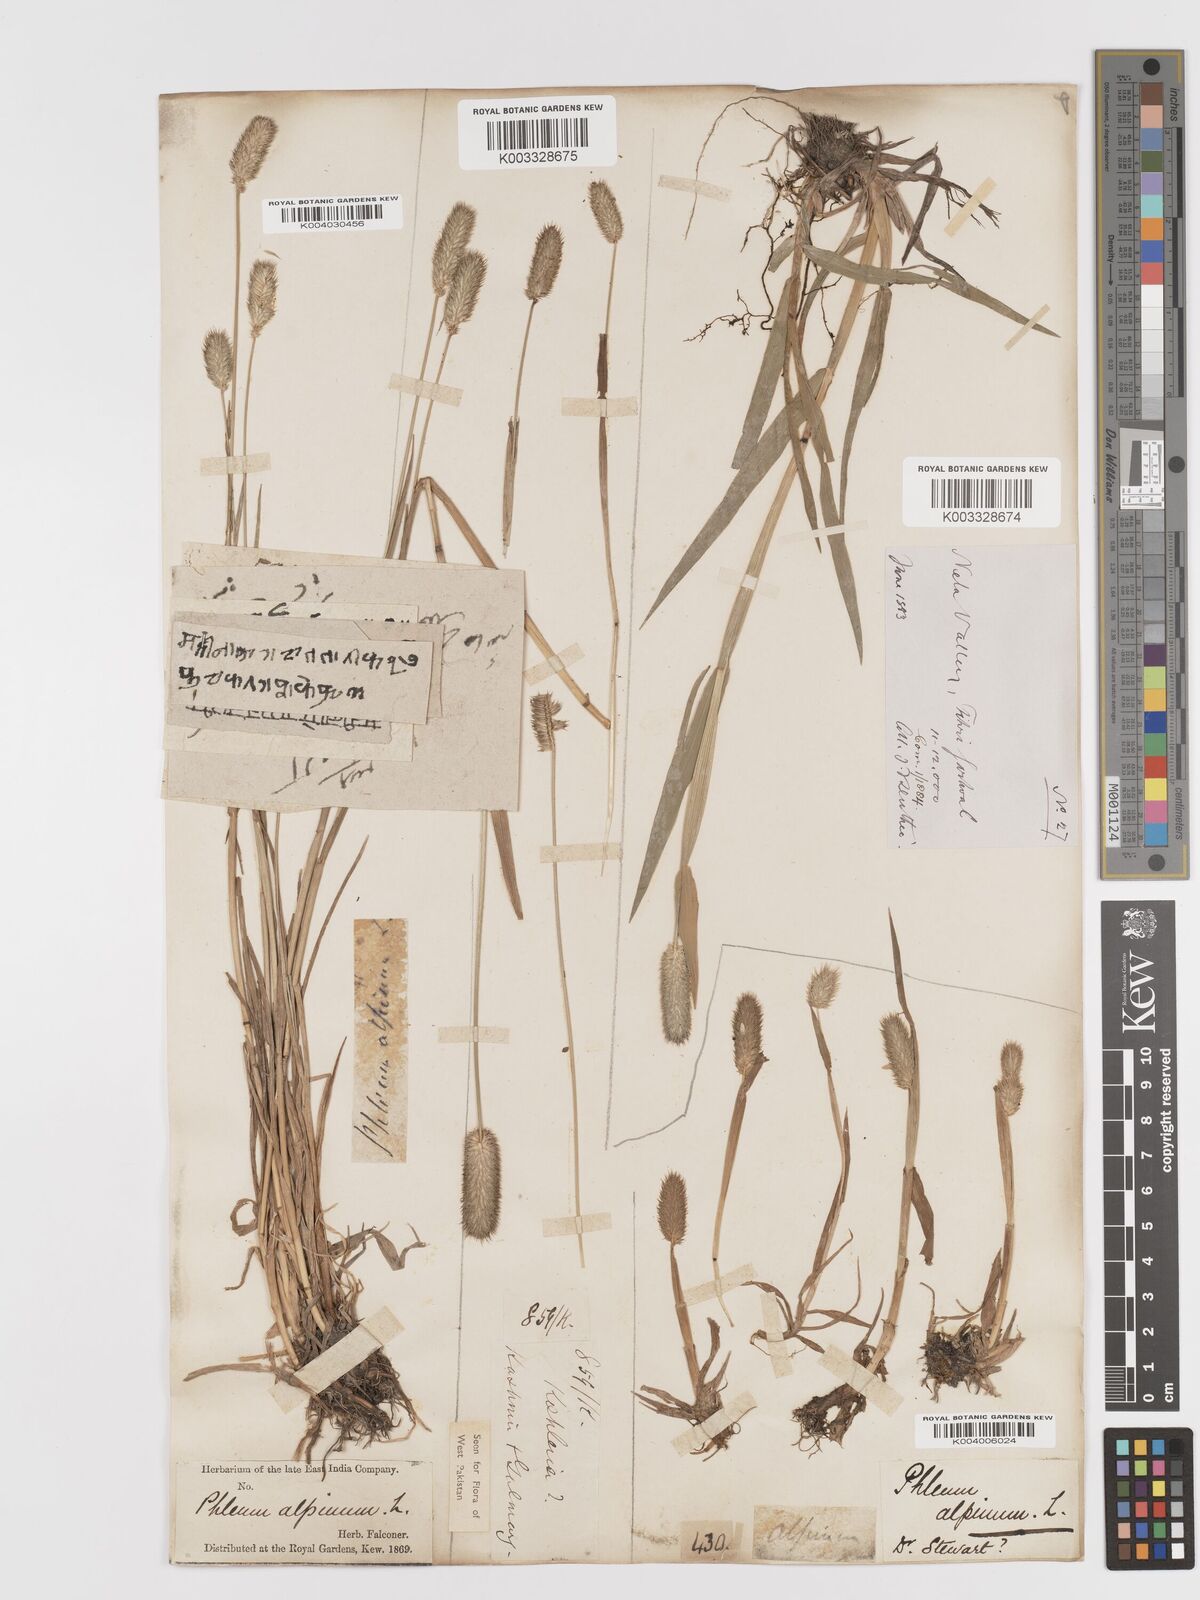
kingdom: Plantae
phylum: Tracheophyta
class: Liliopsida
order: Poales
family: Poaceae
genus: Phleum
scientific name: Phleum alpinum
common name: Alpine cat's-tail
